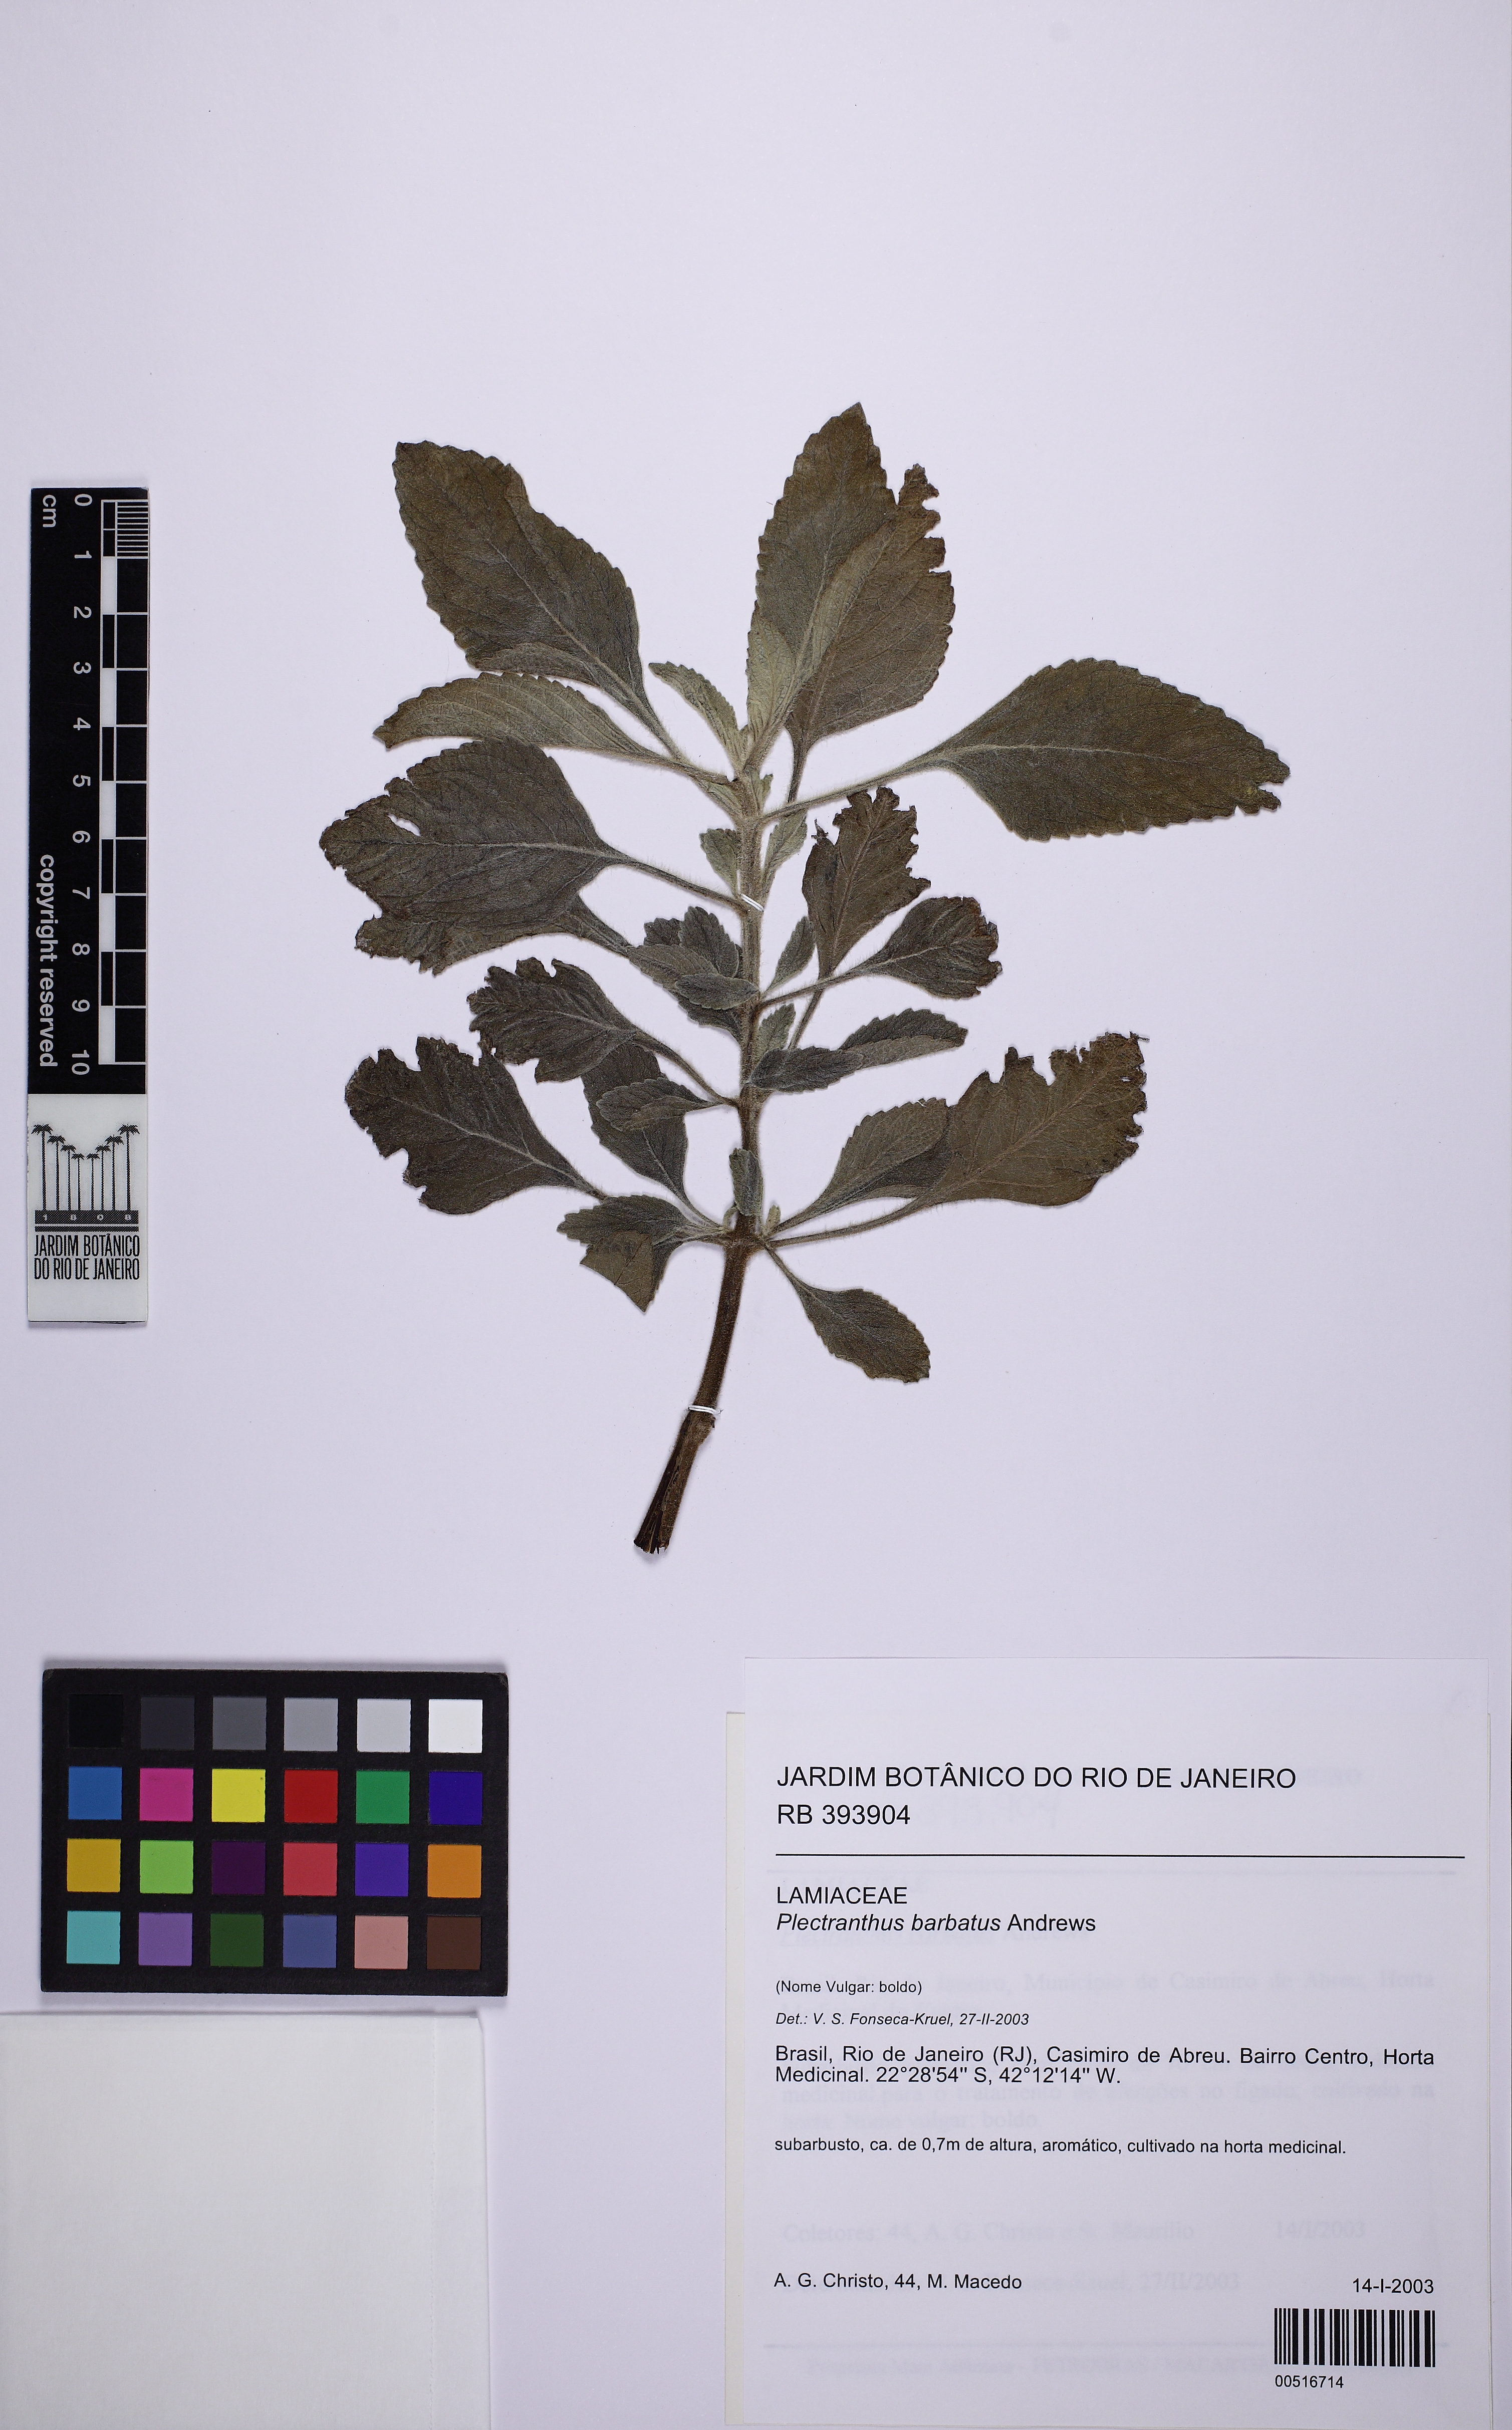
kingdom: Plantae
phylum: Tracheophyta
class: Magnoliopsida
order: Lamiales
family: Lamiaceae
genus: Coleus
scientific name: Coleus barbatus
